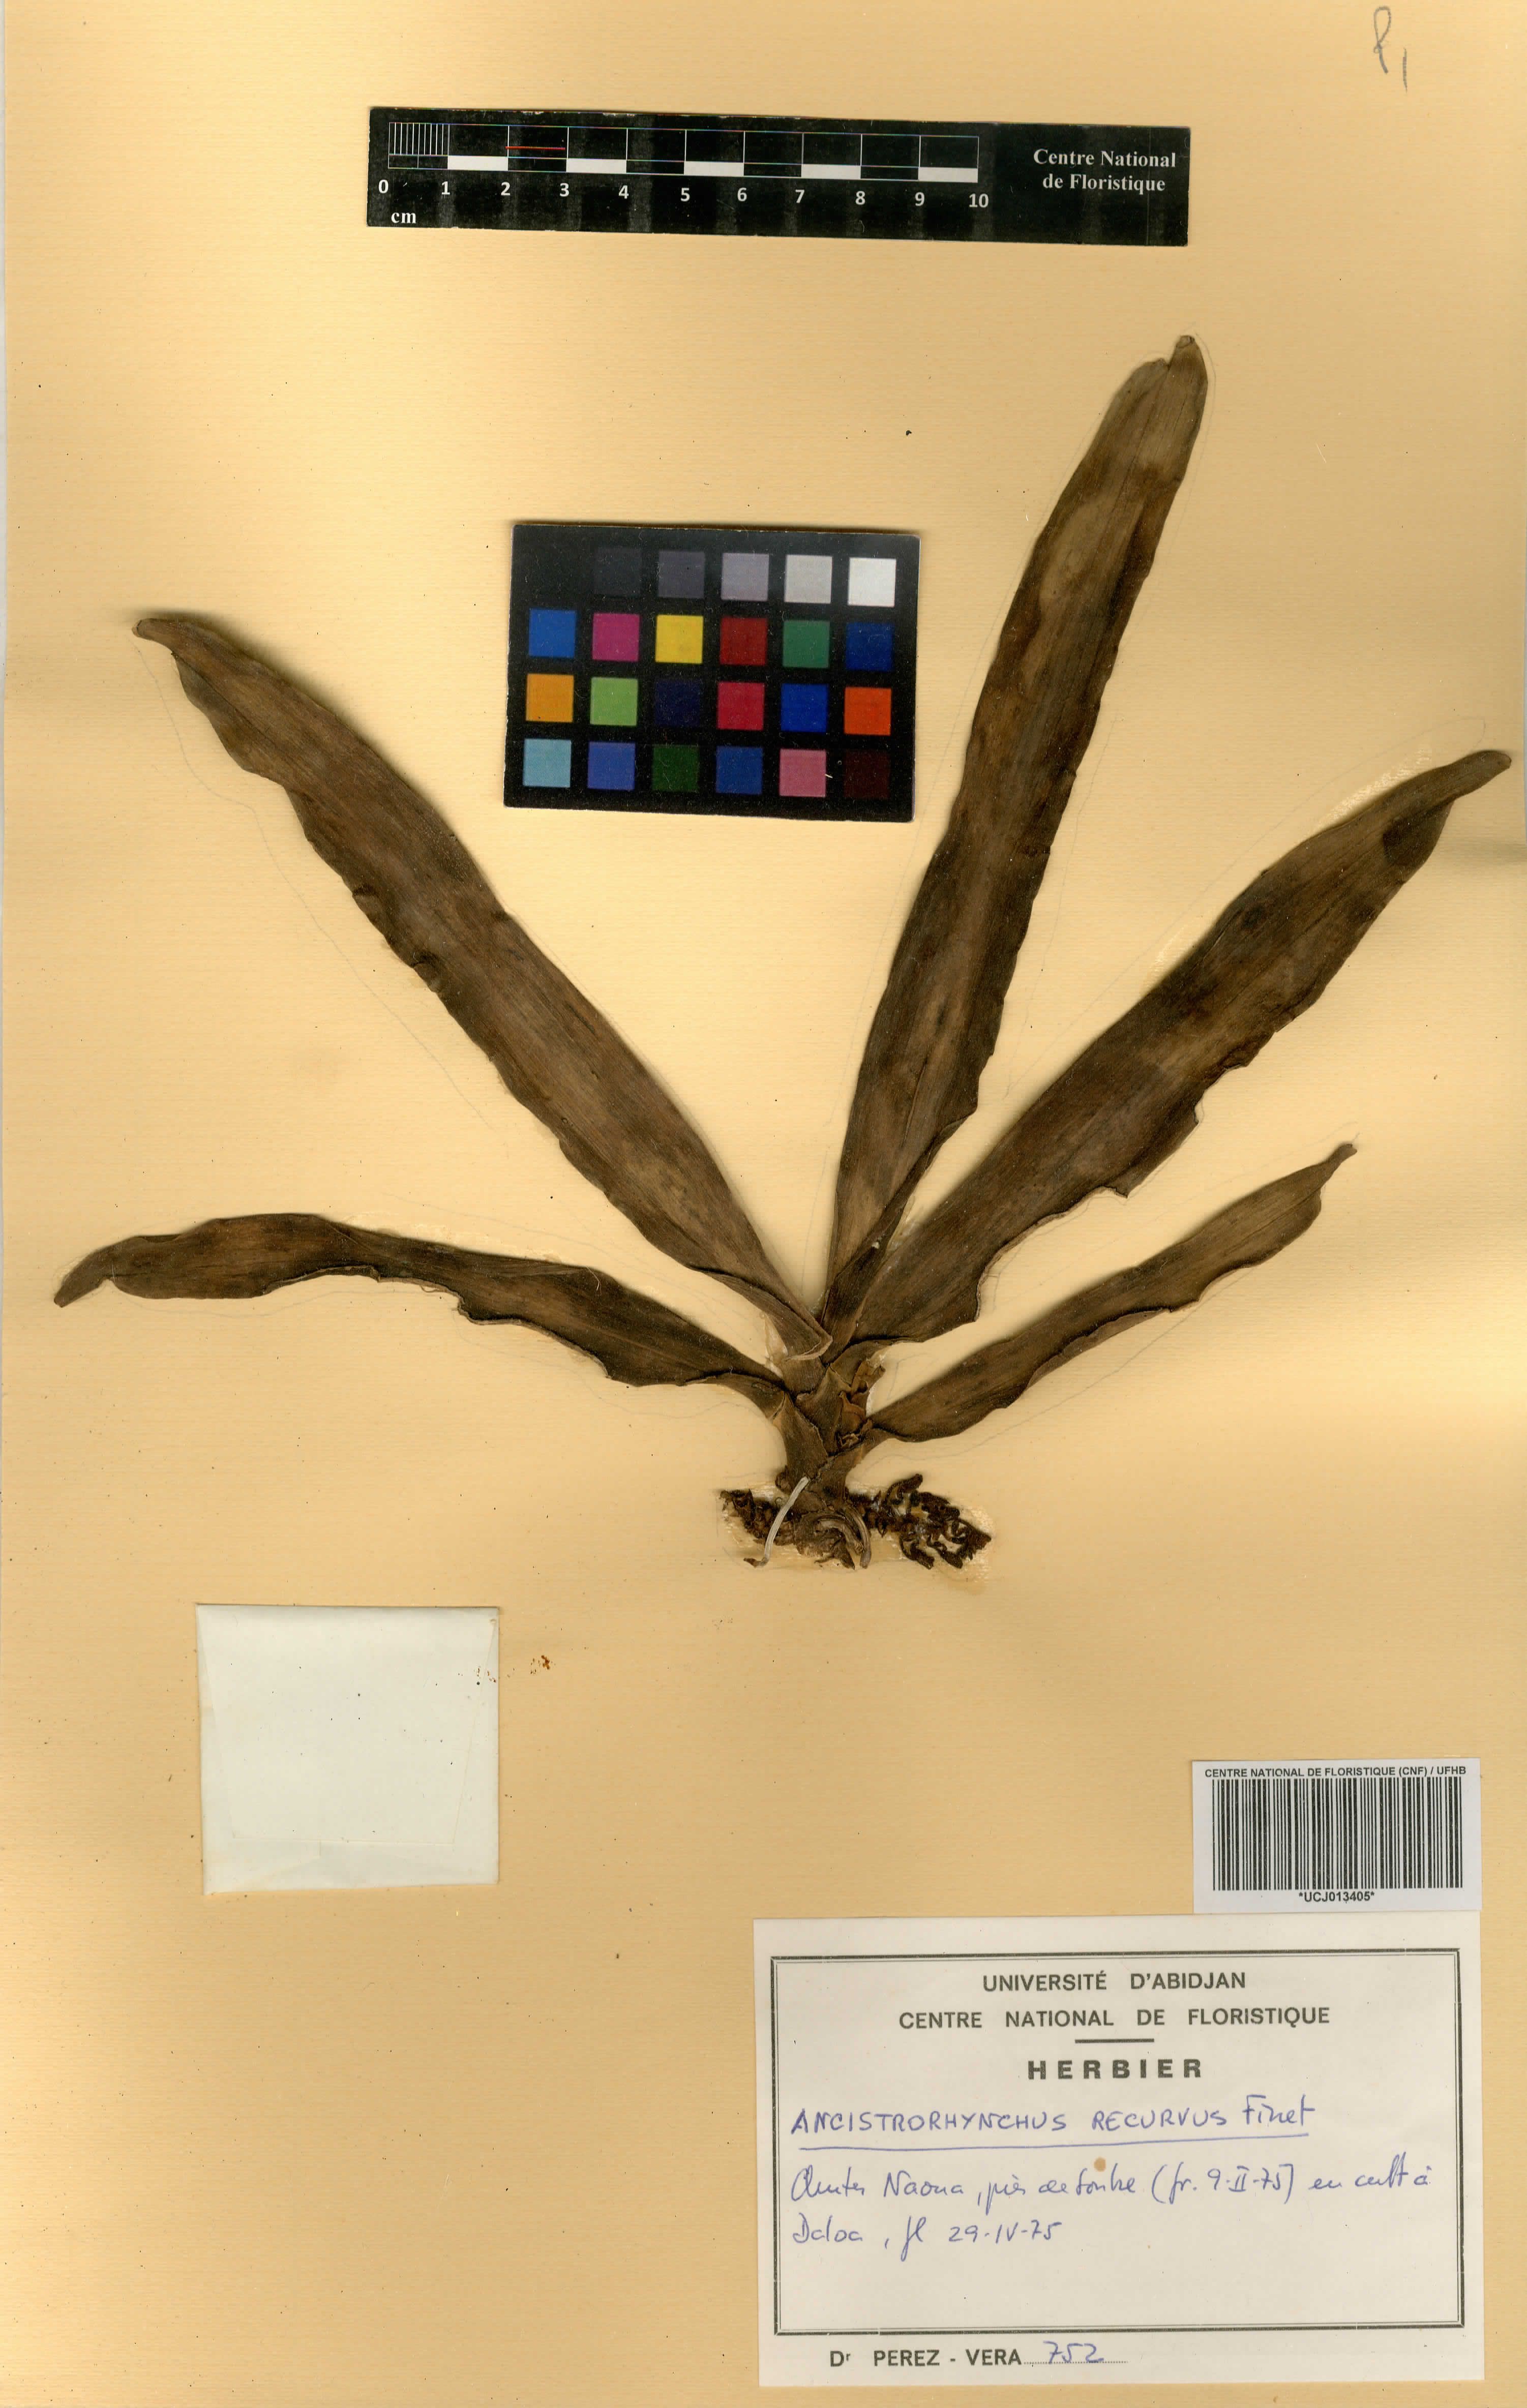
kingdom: Plantae
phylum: Tracheophyta
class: Liliopsida
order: Asparagales
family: Orchidaceae
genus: Ancistrorhynchus
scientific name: Ancistrorhynchus recurvus
